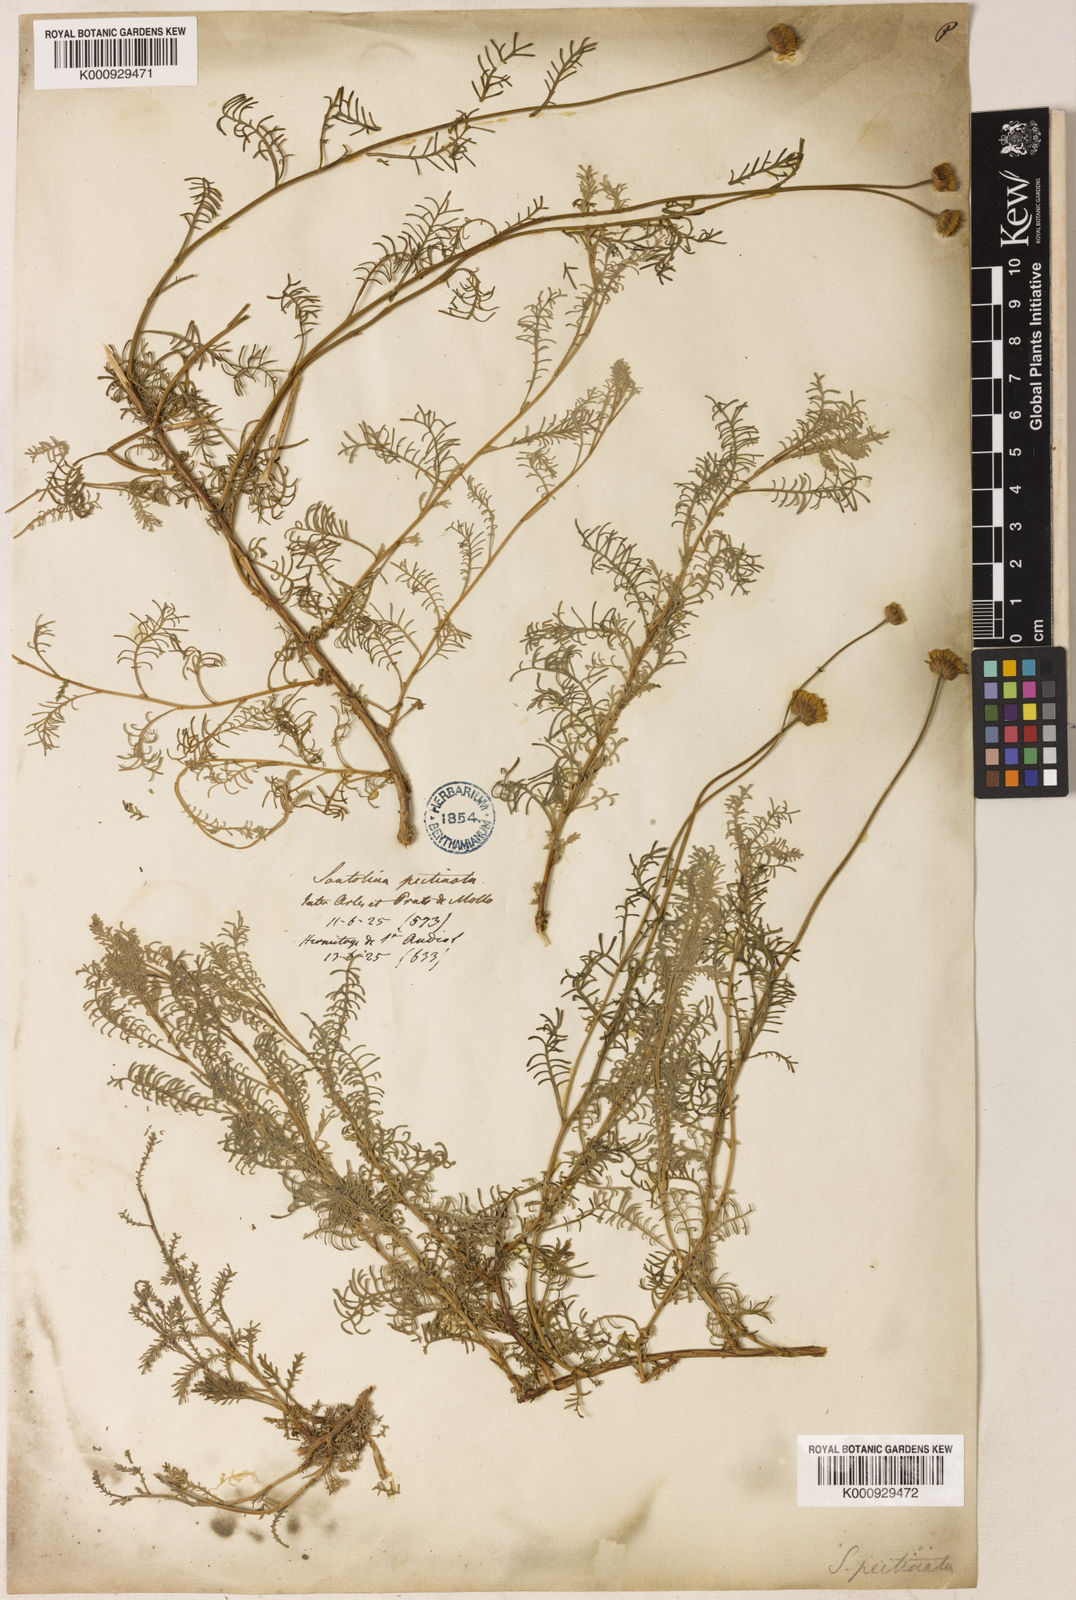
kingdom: Plantae
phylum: Tracheophyta
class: Magnoliopsida
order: Asterales
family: Asteraceae
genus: Santolina
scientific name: Santolina chamaecyparissus
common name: Lavender-cotton
